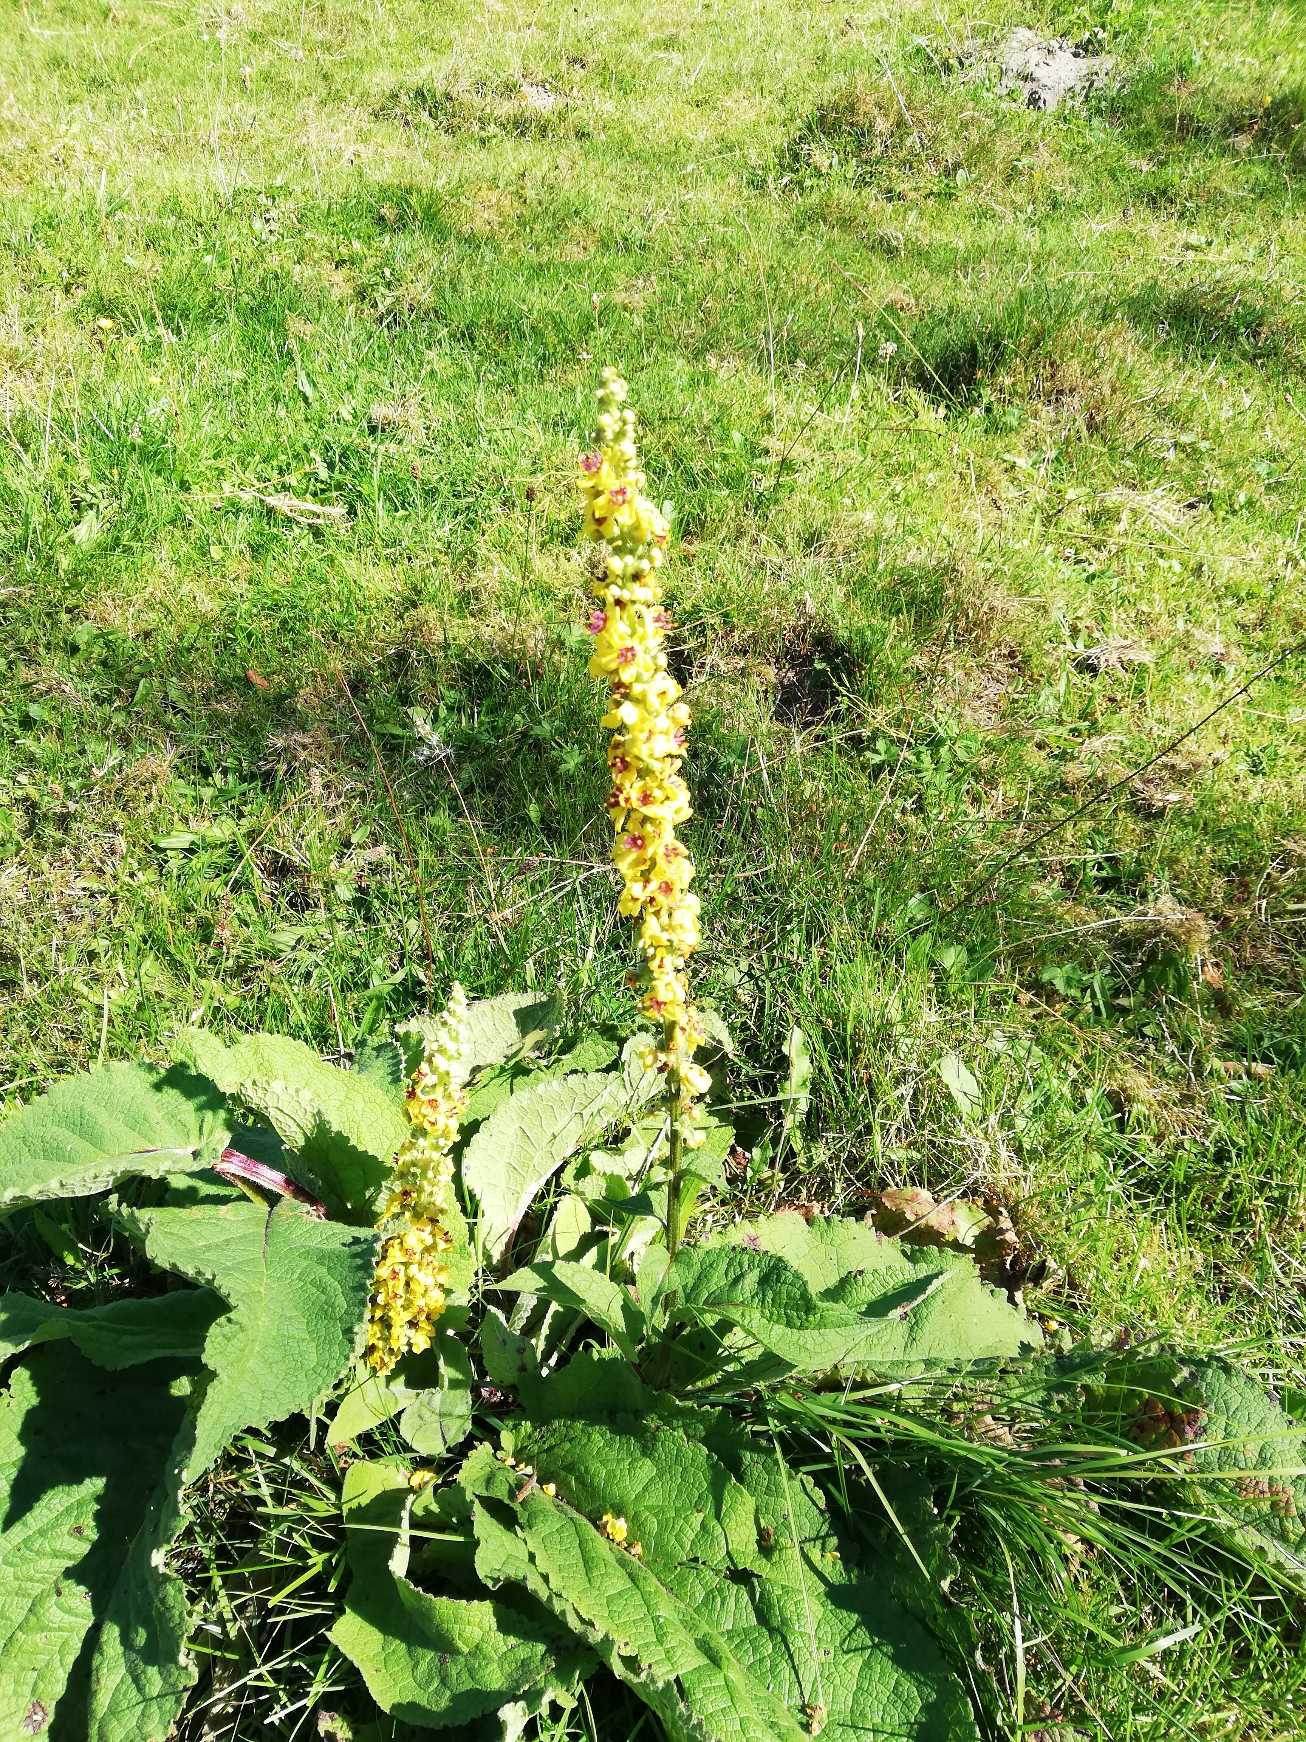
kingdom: Plantae
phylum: Tracheophyta
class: Magnoliopsida
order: Lamiales
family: Scrophulariaceae
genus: Verbascum
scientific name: Verbascum nigrum
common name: Mørk kongelys
